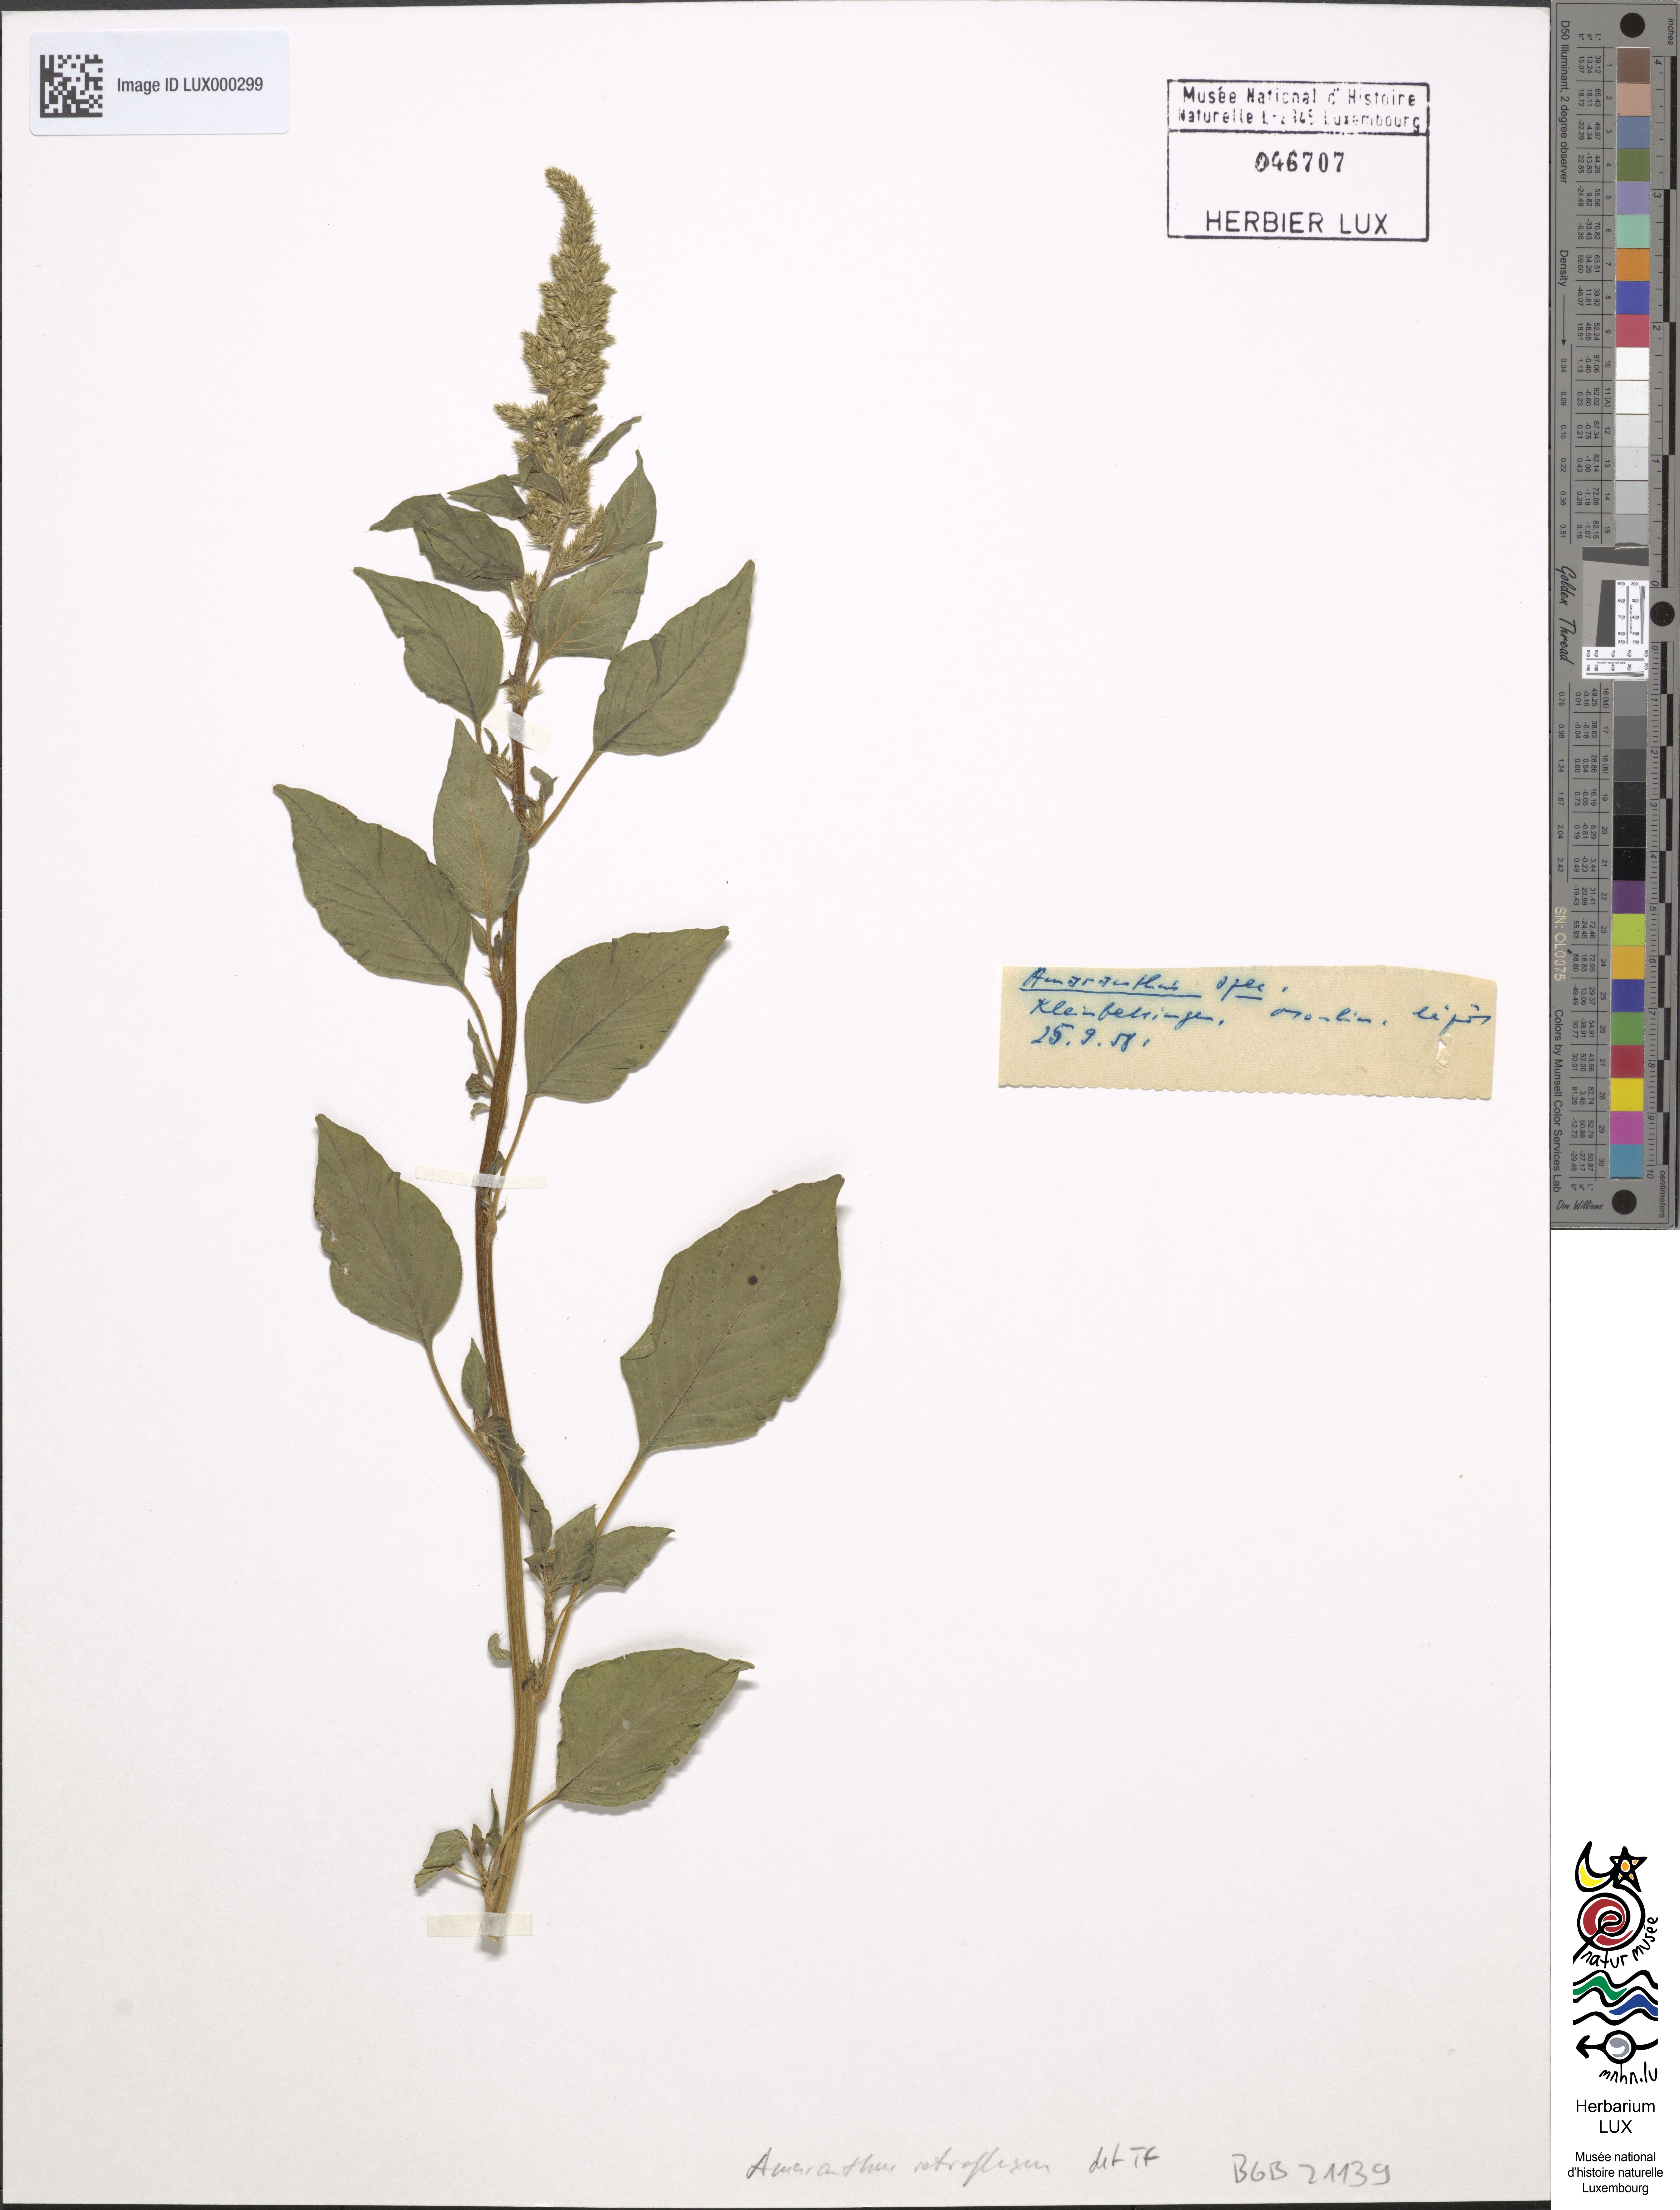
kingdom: Plantae
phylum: Tracheophyta
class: Magnoliopsida
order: Caryophyllales
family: Amaranthaceae
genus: Amaranthus
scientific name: Amaranthus retroflexus
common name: Redroot amaranth
